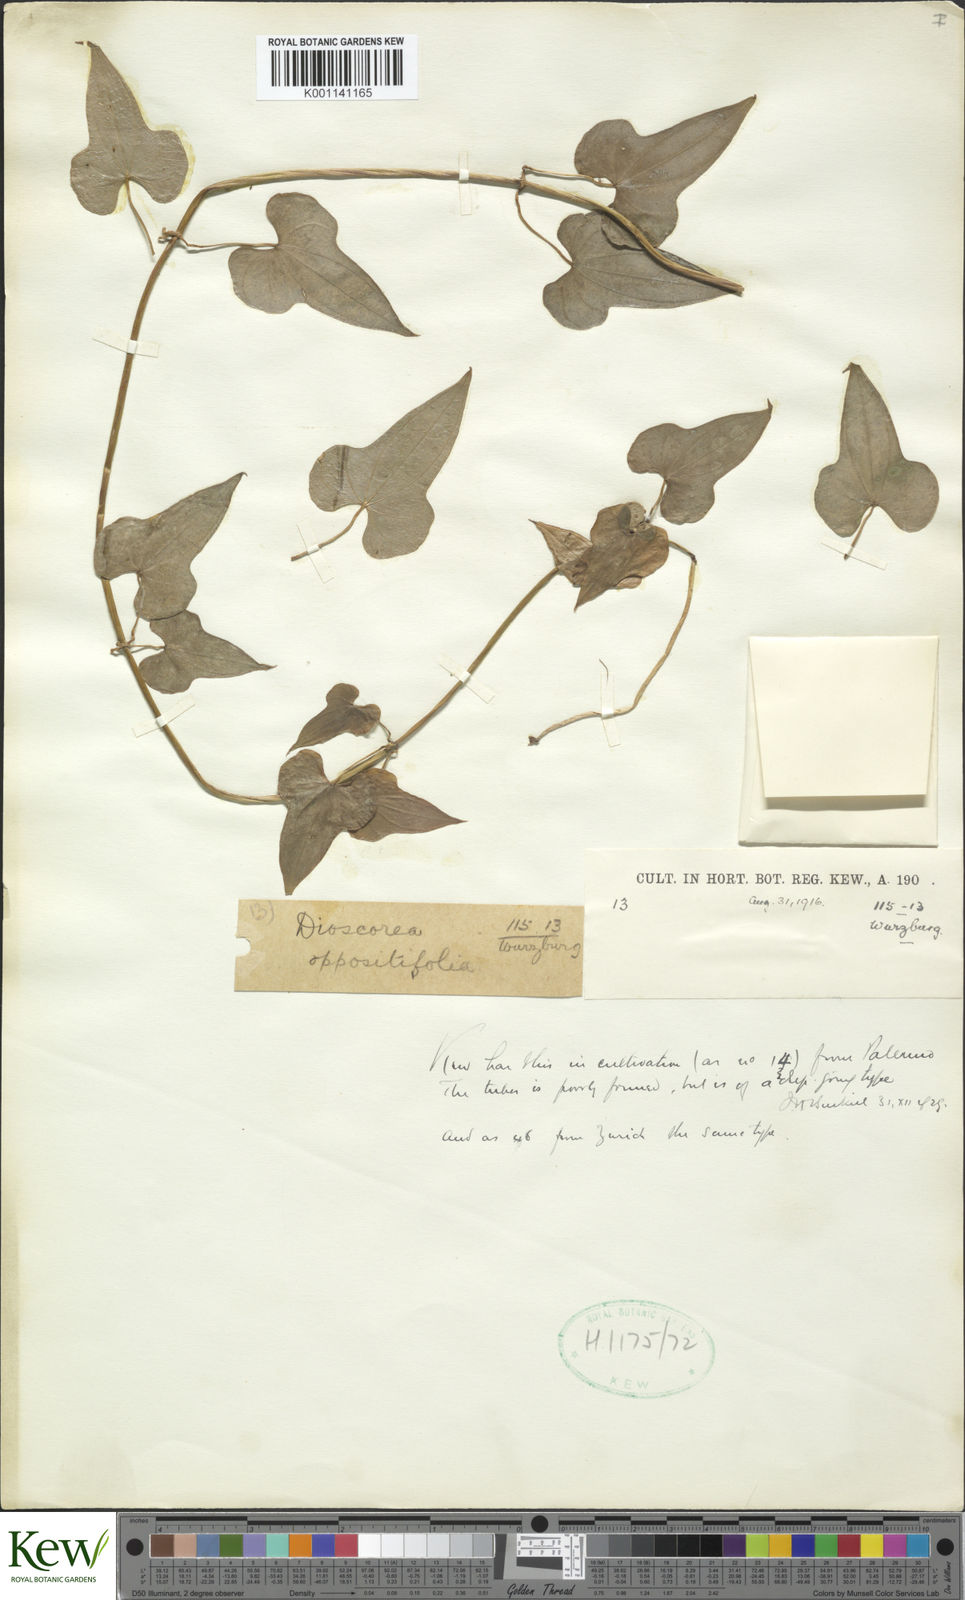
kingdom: Plantae
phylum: Tracheophyta
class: Liliopsida
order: Dioscoreales
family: Dioscoreaceae
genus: Dioscorea
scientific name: Dioscorea sinuata
